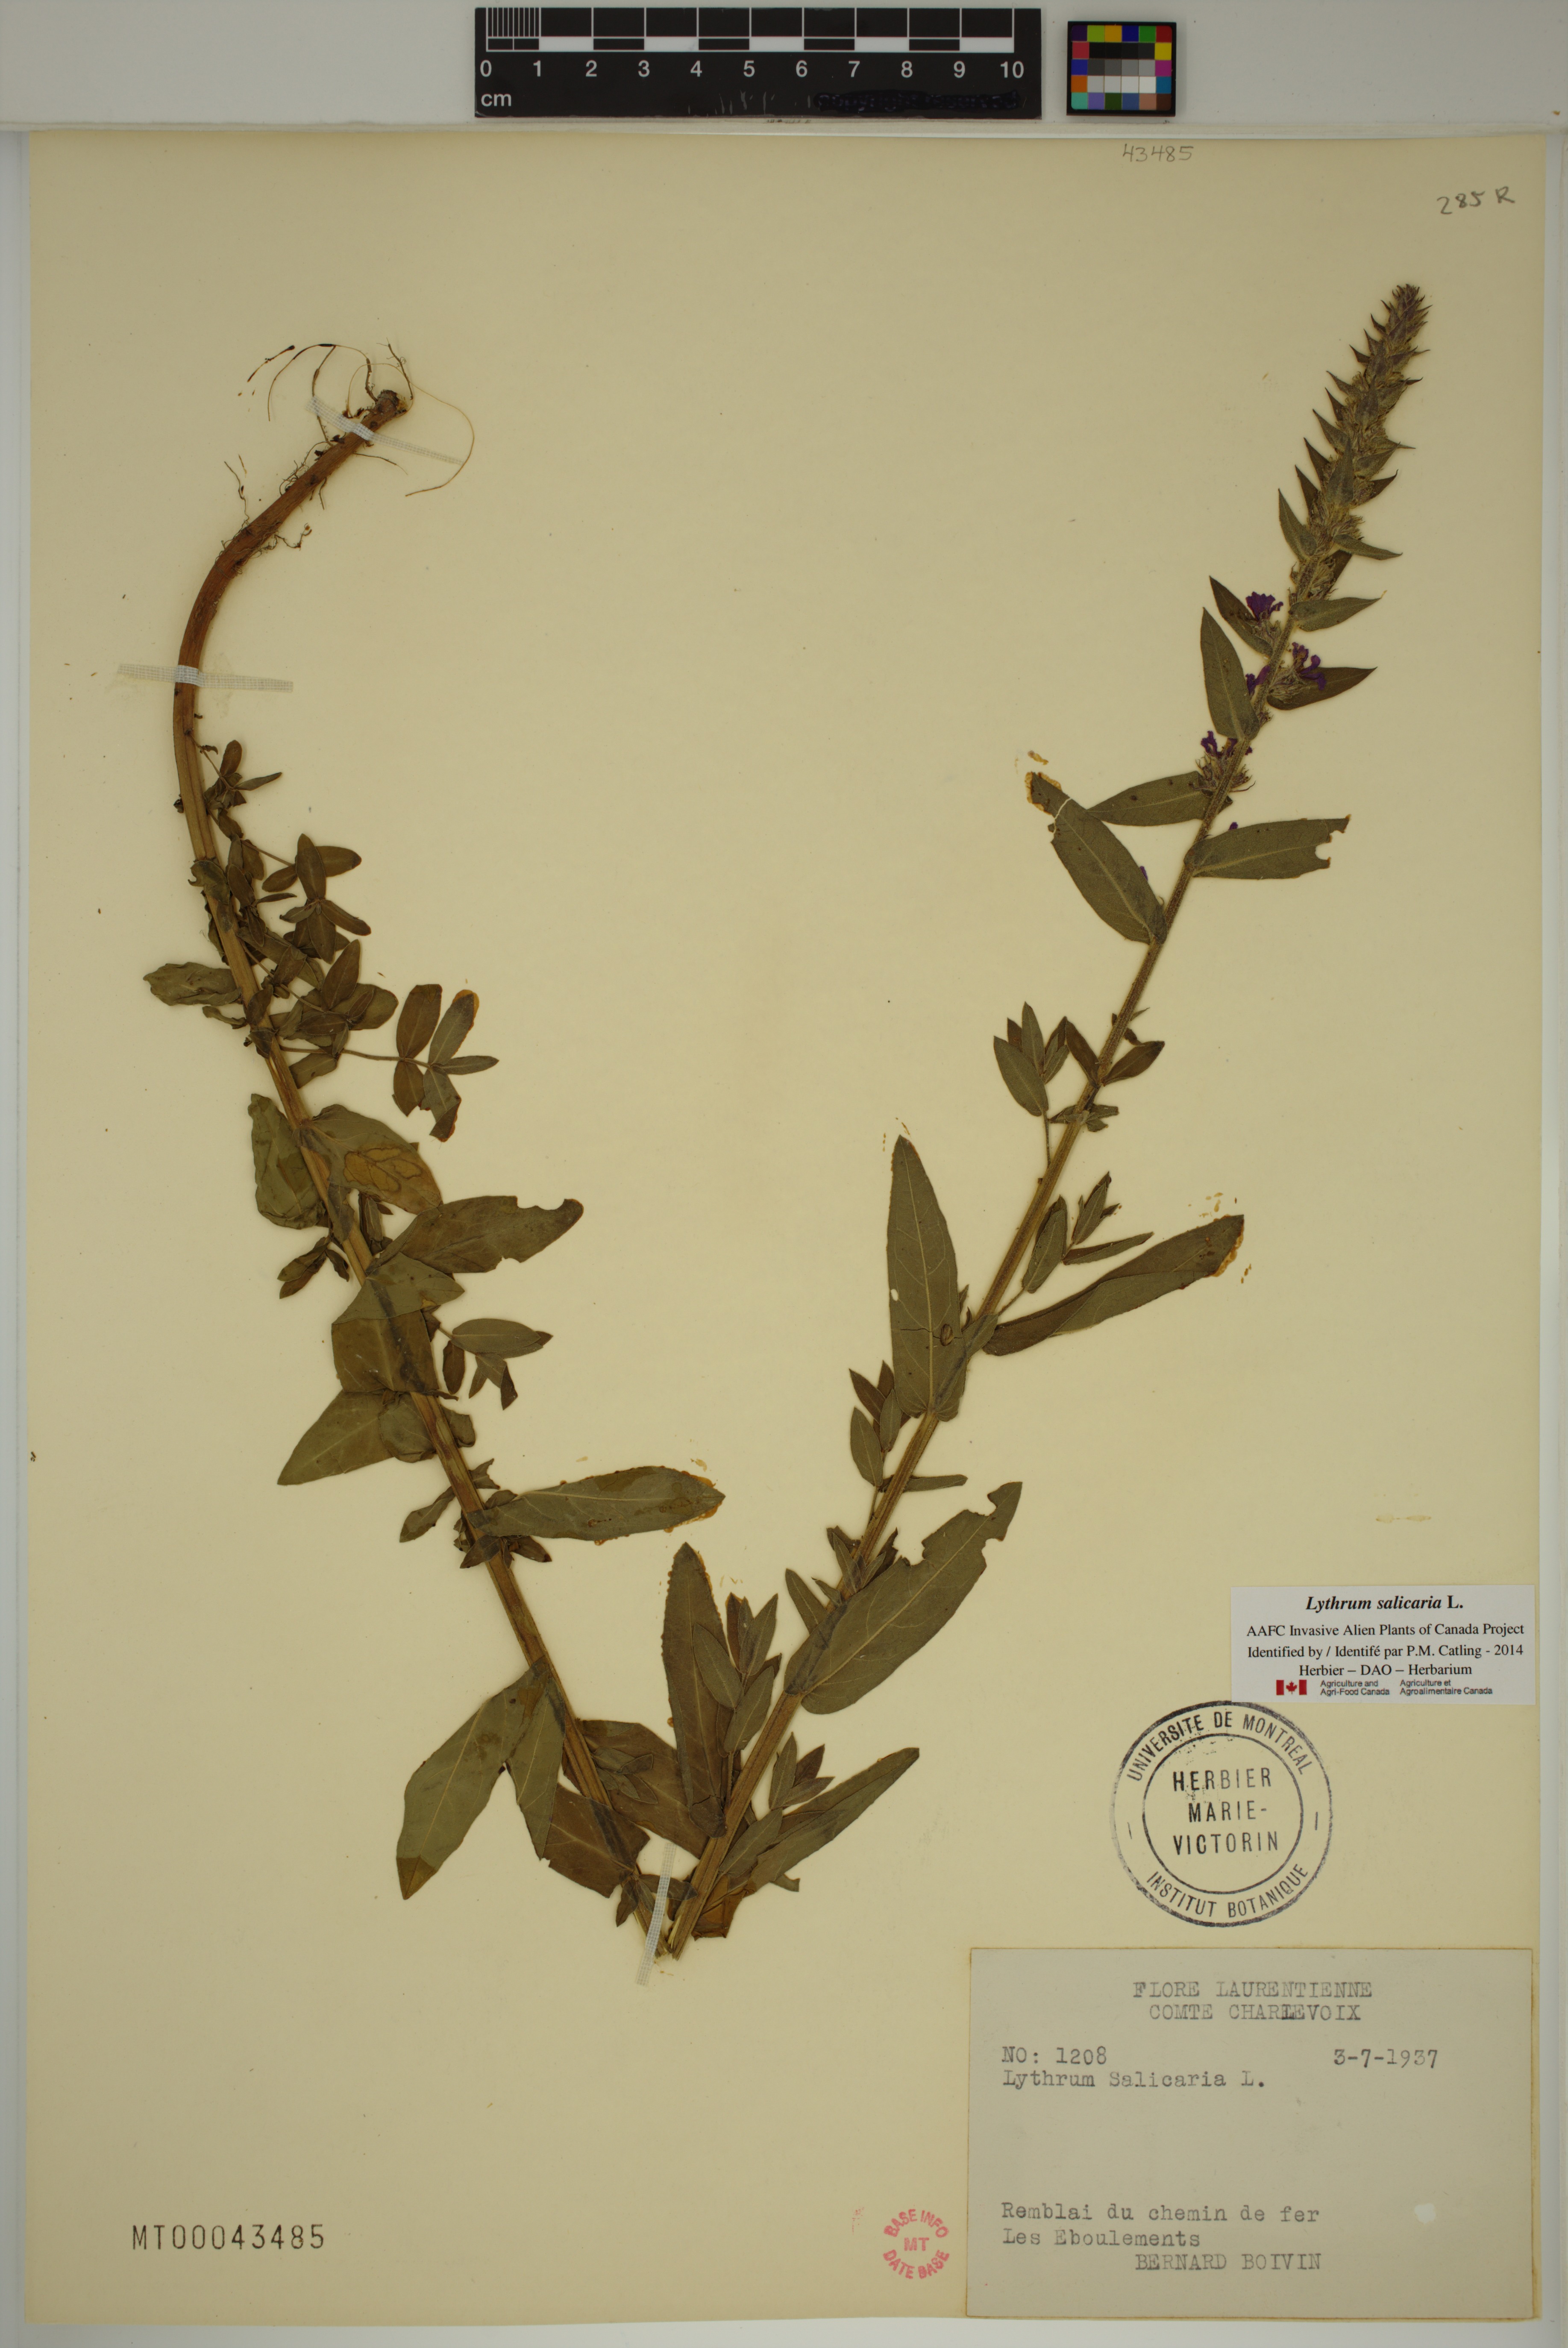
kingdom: Plantae
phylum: Tracheophyta
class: Magnoliopsida
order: Myrtales
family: Lythraceae
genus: Lythrum
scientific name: Lythrum salicaria
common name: Purple loosestrife
